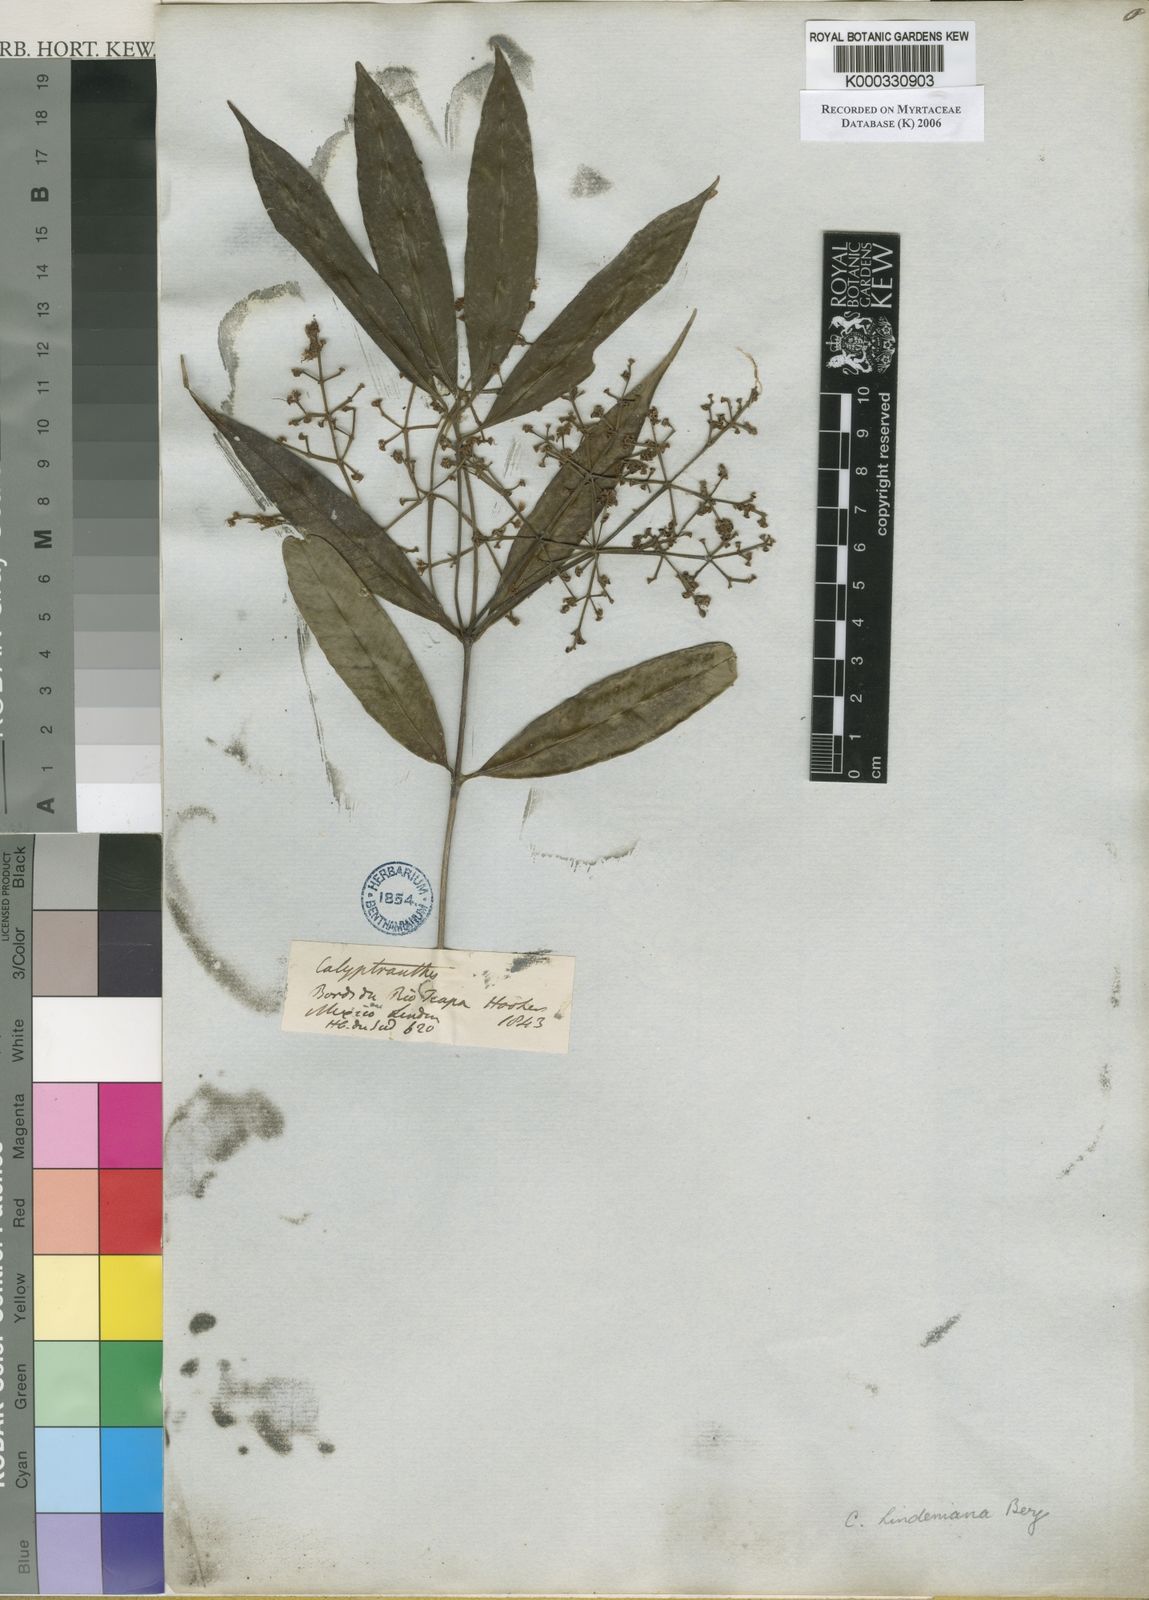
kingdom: Plantae
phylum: Tracheophyta
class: Magnoliopsida
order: Myrtales
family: Myrtaceae
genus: Myrcia
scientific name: Myrcia neolindeniana
